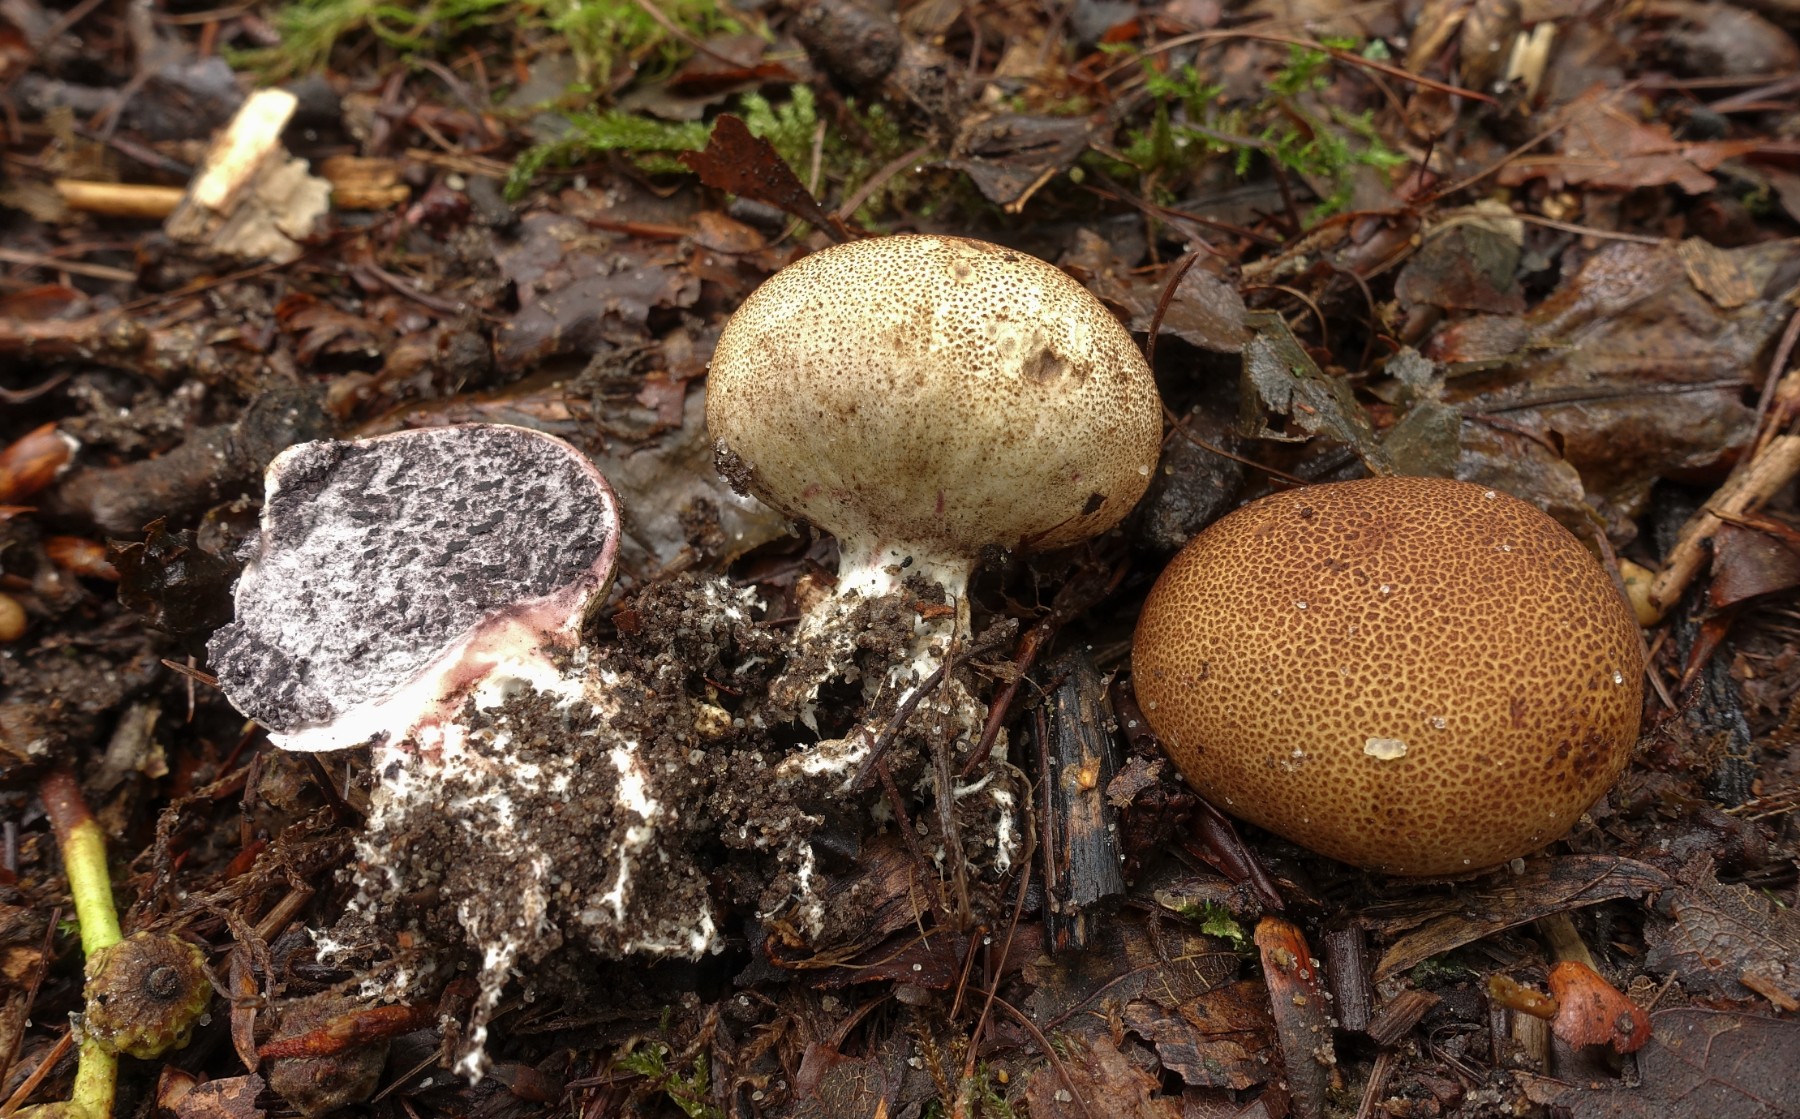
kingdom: Fungi
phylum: Basidiomycota
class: Agaricomycetes
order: Boletales
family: Sclerodermataceae
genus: Scleroderma
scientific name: Scleroderma areolatum
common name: plettet bruskbold
